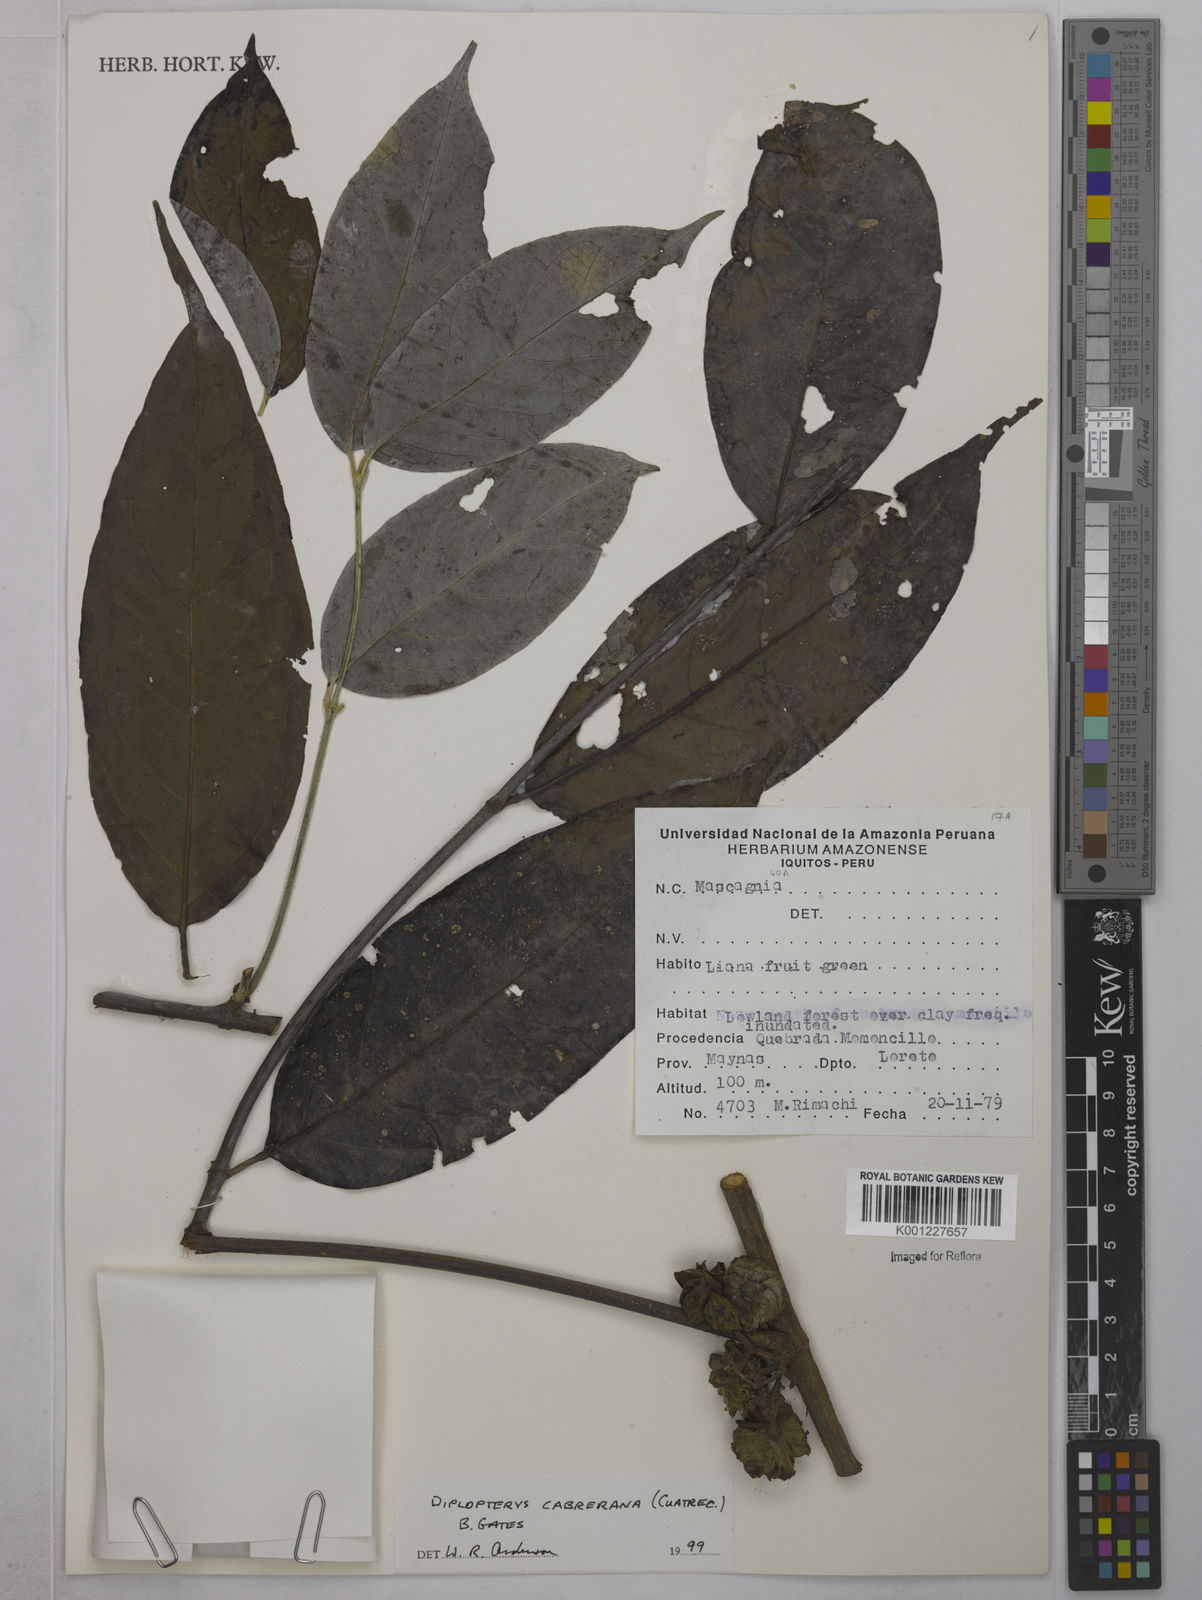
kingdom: Plantae
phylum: Tracheophyta
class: Magnoliopsida
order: Malpighiales
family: Malpighiaceae
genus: Diplopterys
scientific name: Diplopterys cabrerana
